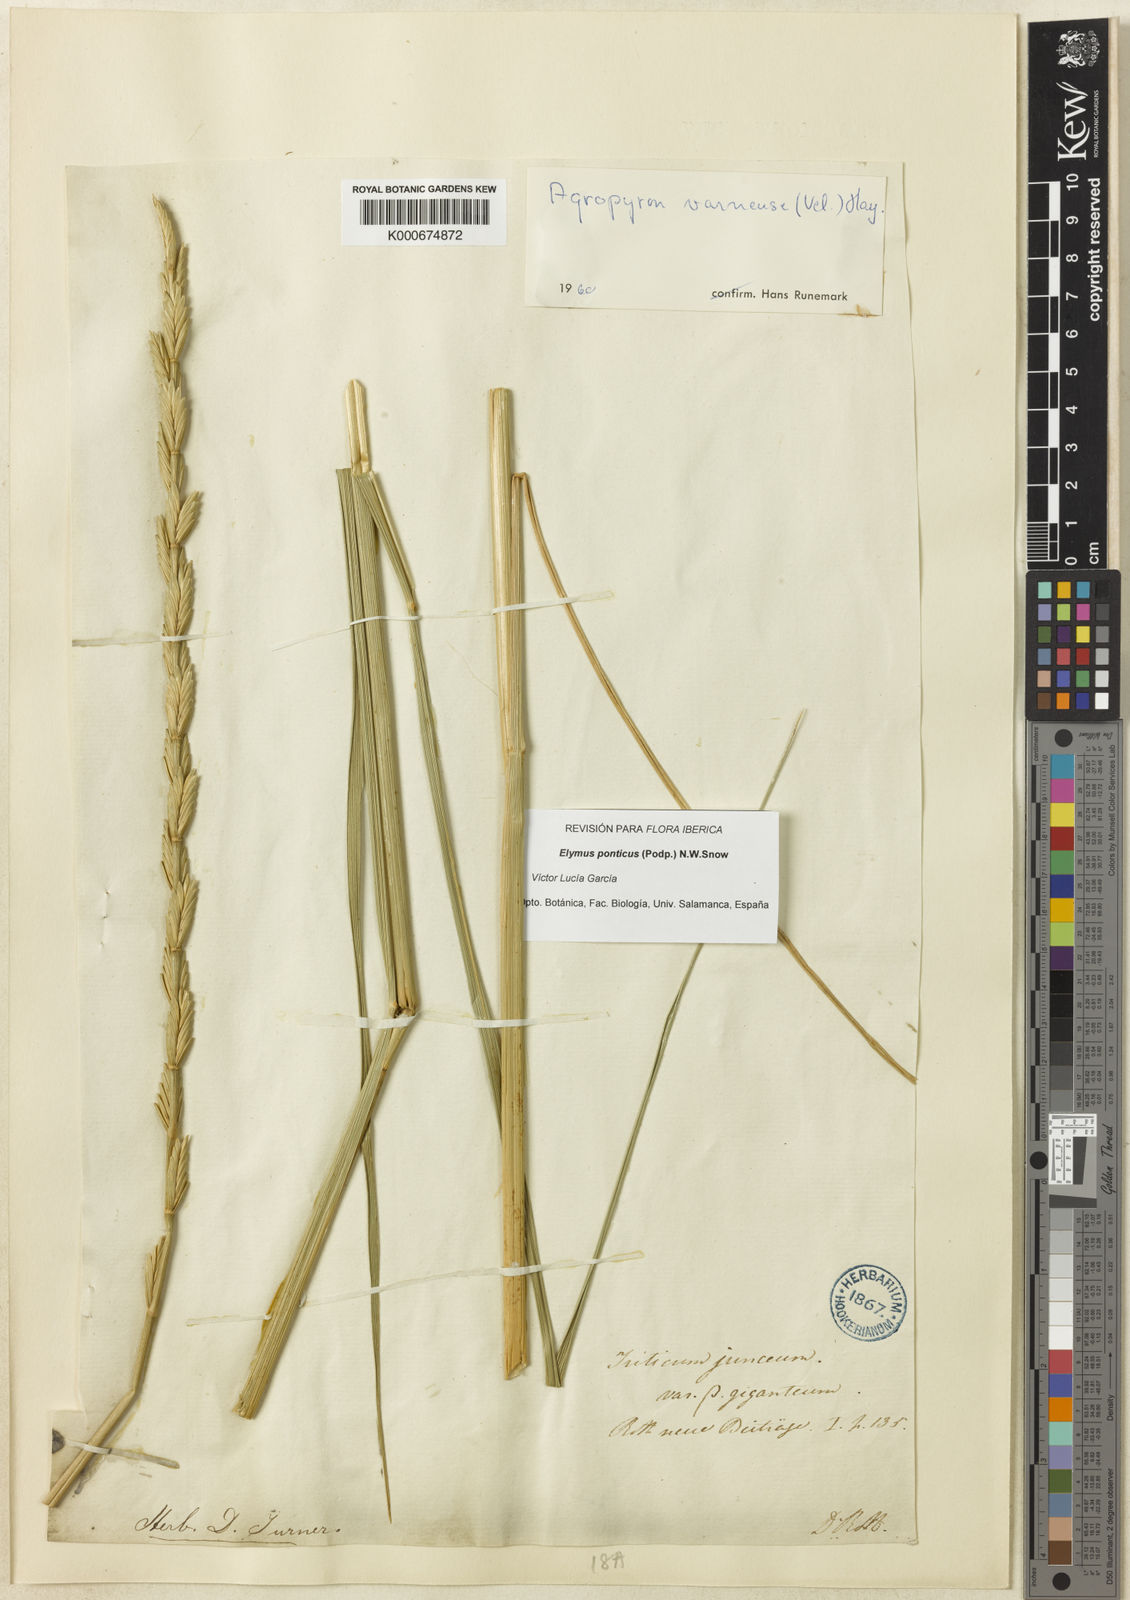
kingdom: Plantae
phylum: Tracheophyta
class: Liliopsida
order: Poales
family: Poaceae
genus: Thinopyrum
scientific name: Thinopyrum intermedium
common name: Intermediate wheatgrass
